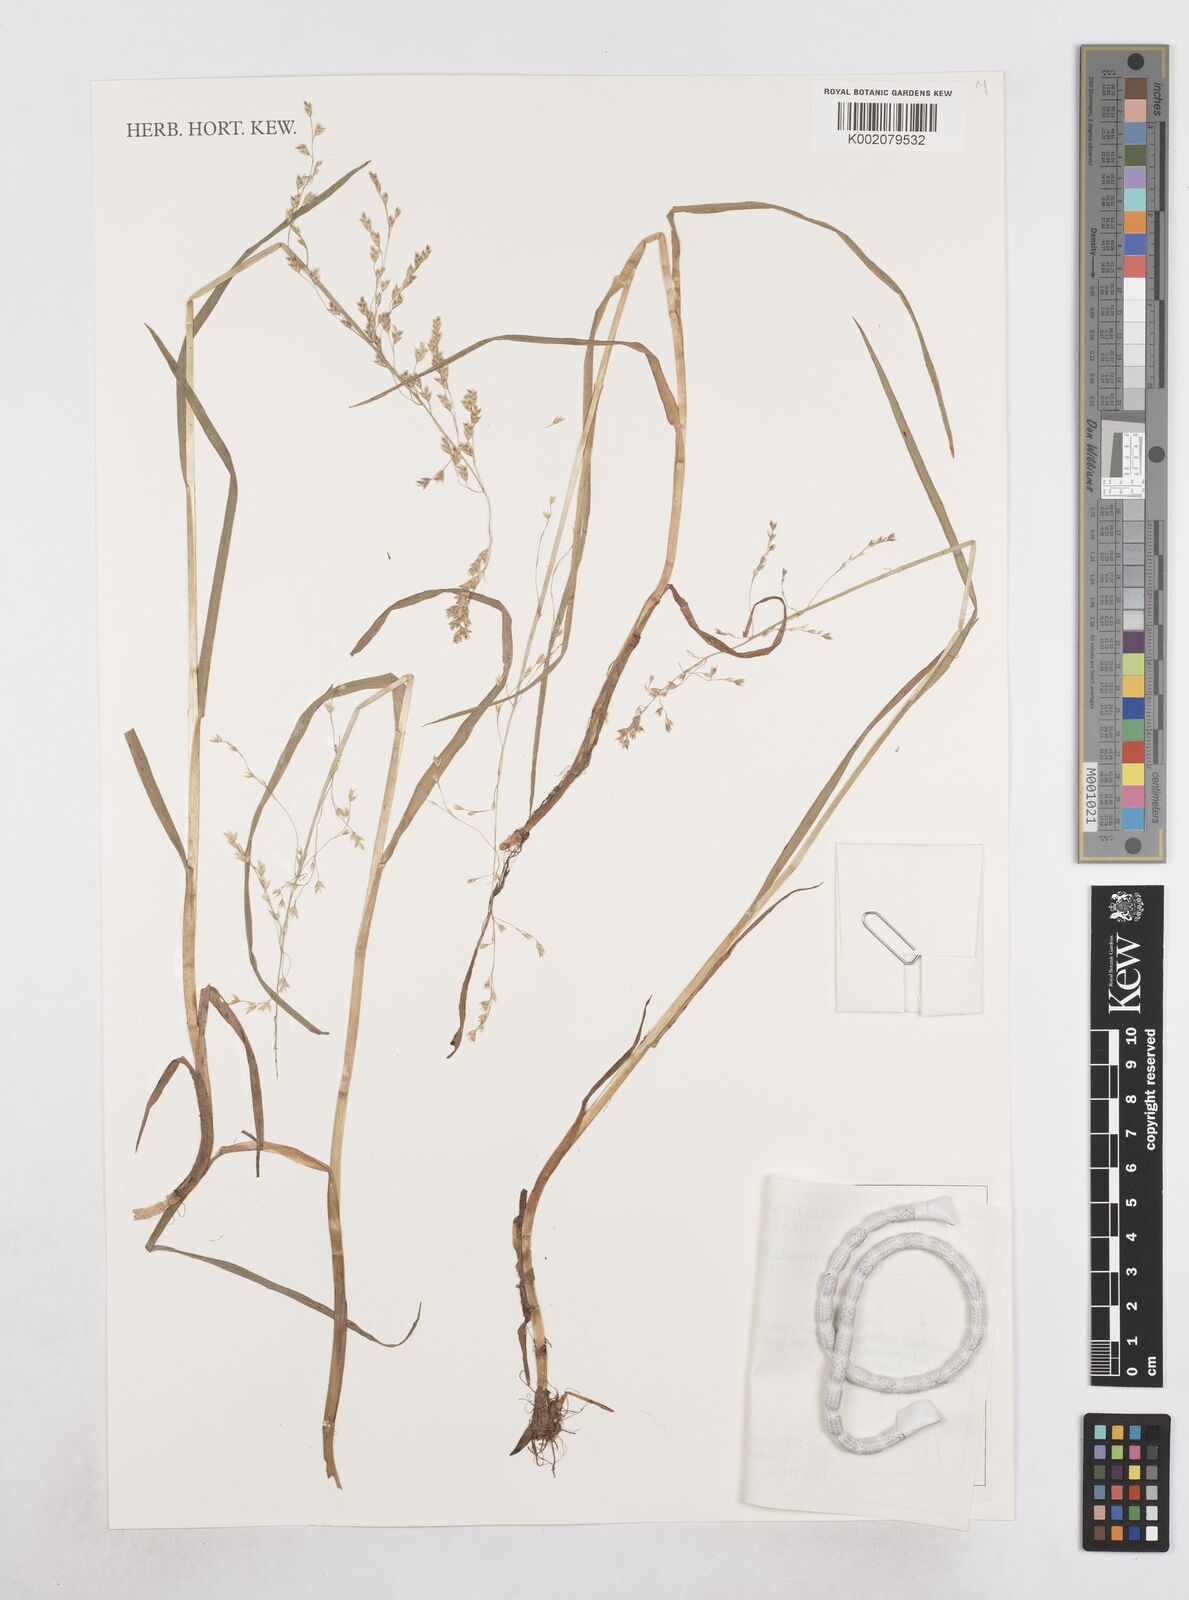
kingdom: Plantae
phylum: Tracheophyta
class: Liliopsida
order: Poales
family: Poaceae
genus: Dupontia
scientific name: Dupontia fulva
